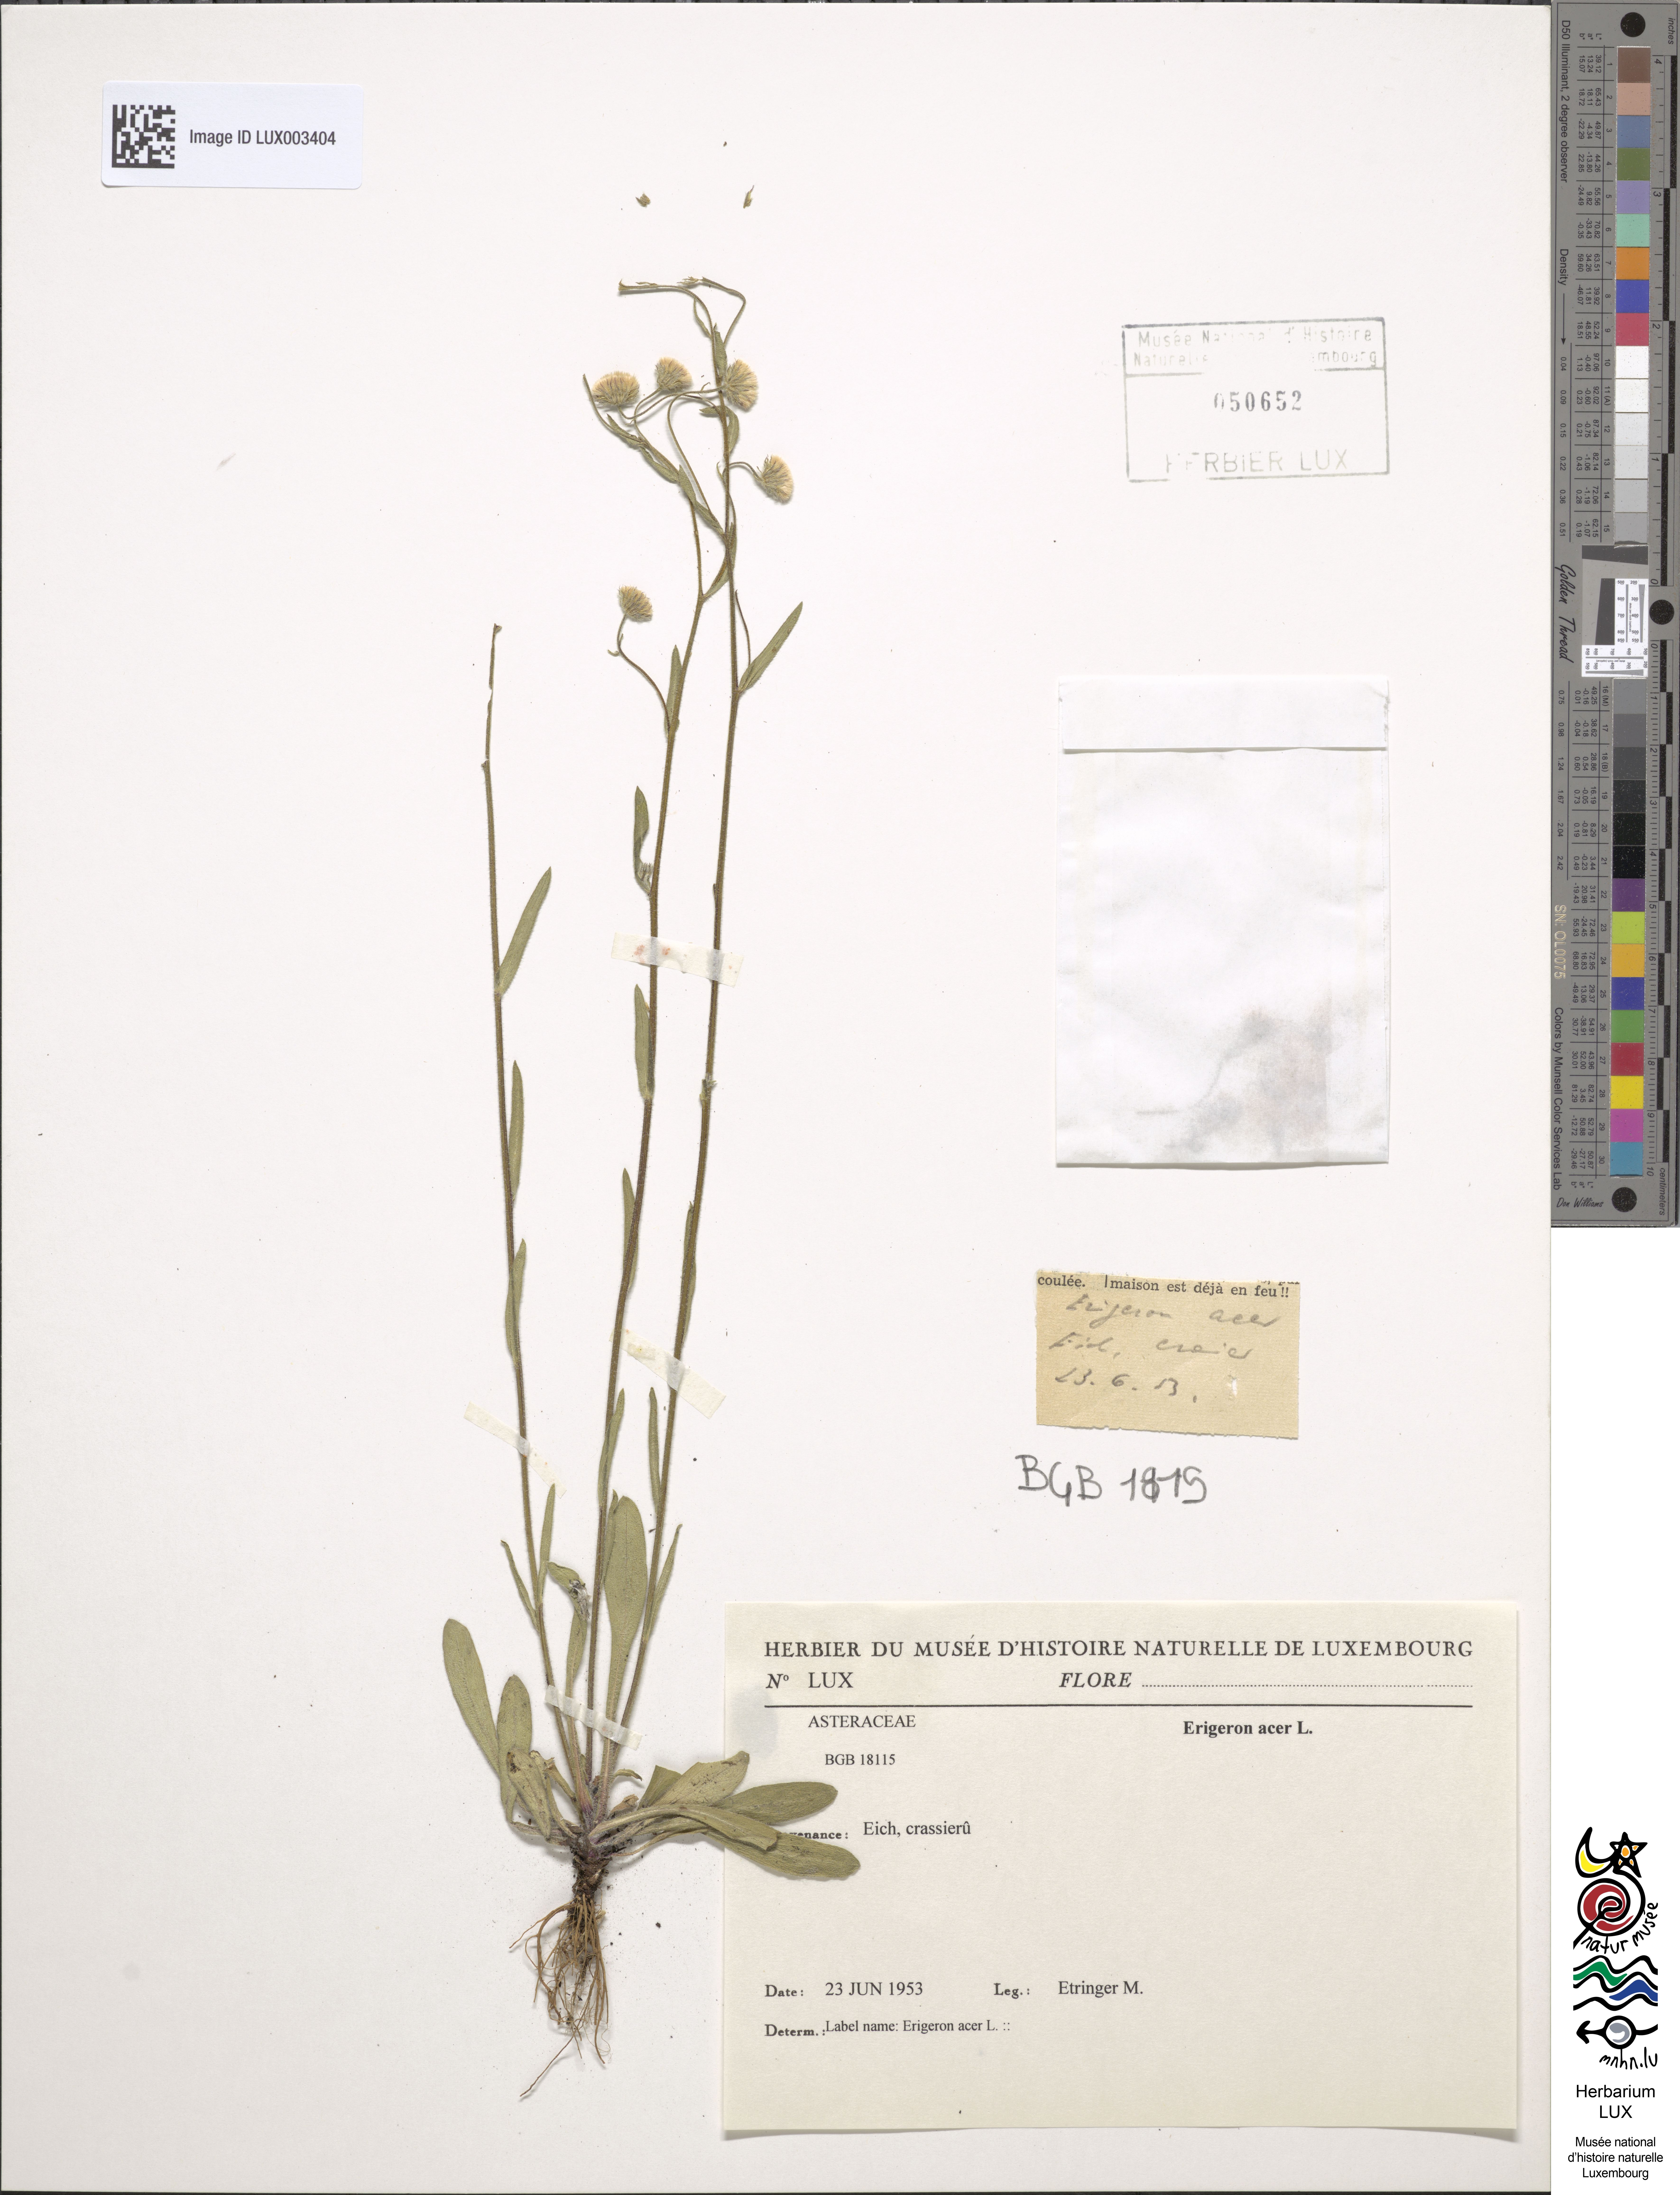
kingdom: Plantae
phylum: Tracheophyta
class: Magnoliopsida
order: Asterales
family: Asteraceae
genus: Erigeron
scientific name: Erigeron acer
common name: Blue fleabane
